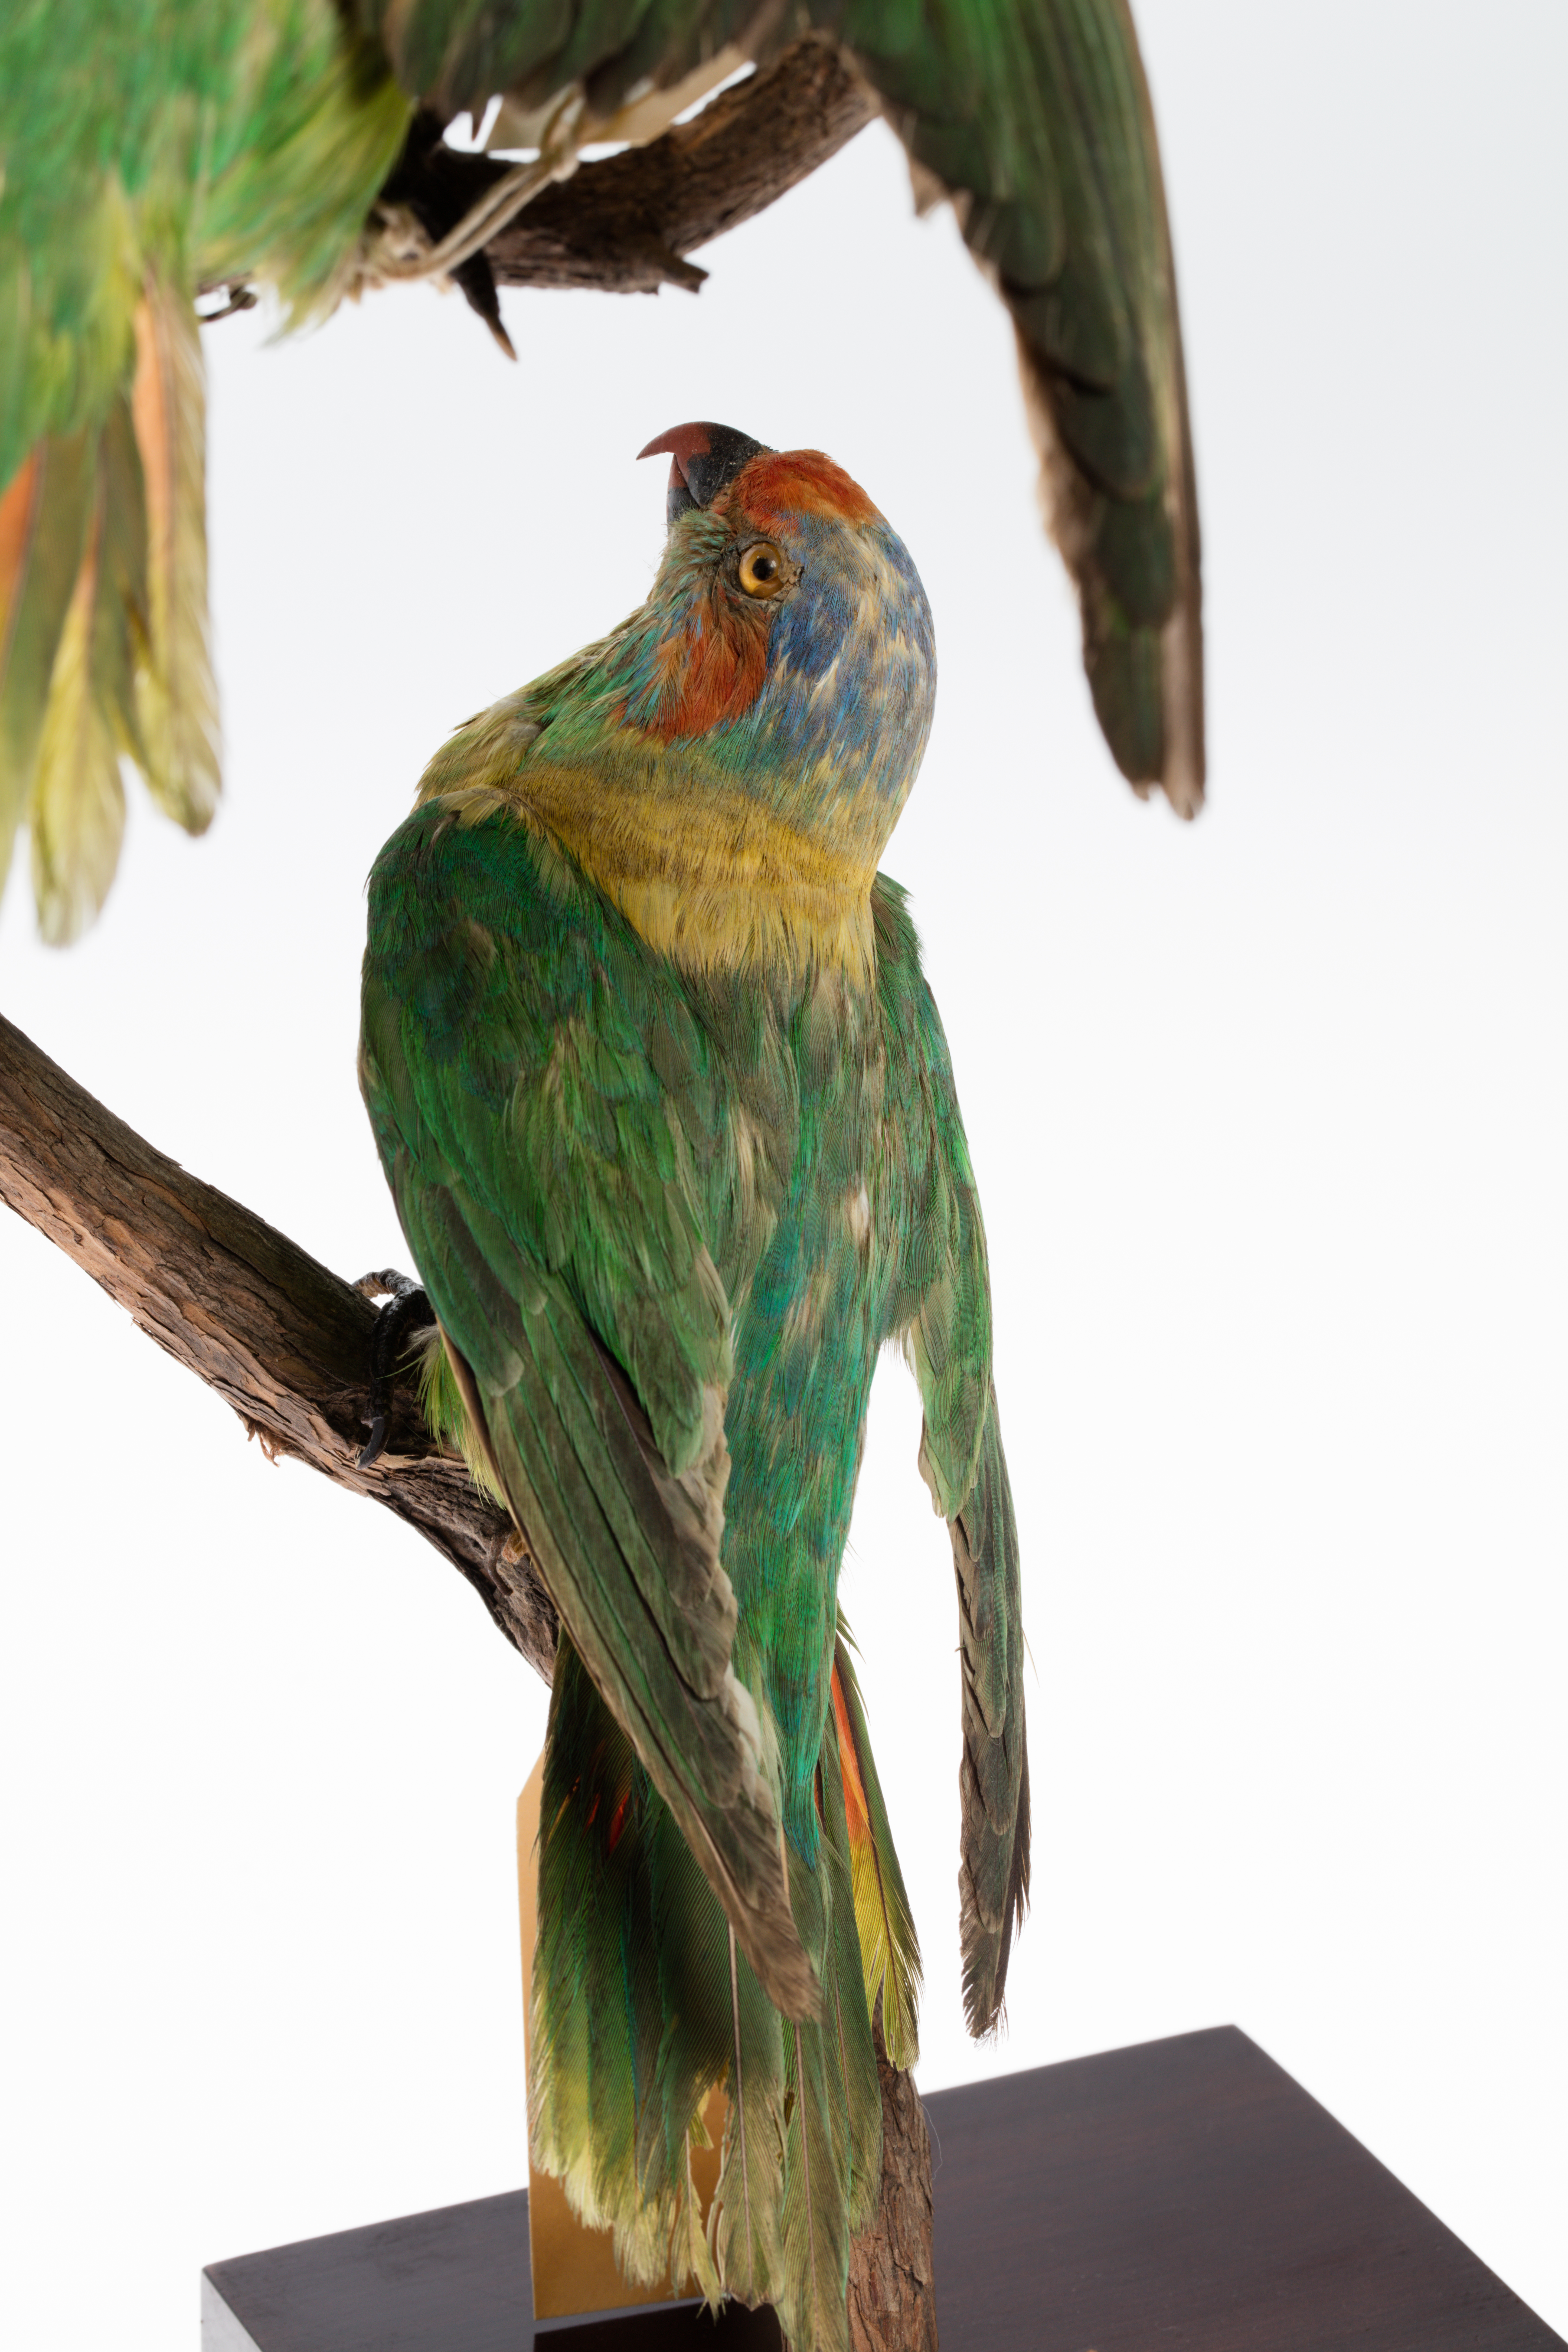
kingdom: Animalia
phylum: Chordata
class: Aves
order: Psittaciformes
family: Psittacidae
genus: Glossopsitta
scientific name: Glossopsitta concinna
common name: Musk lorikeet
